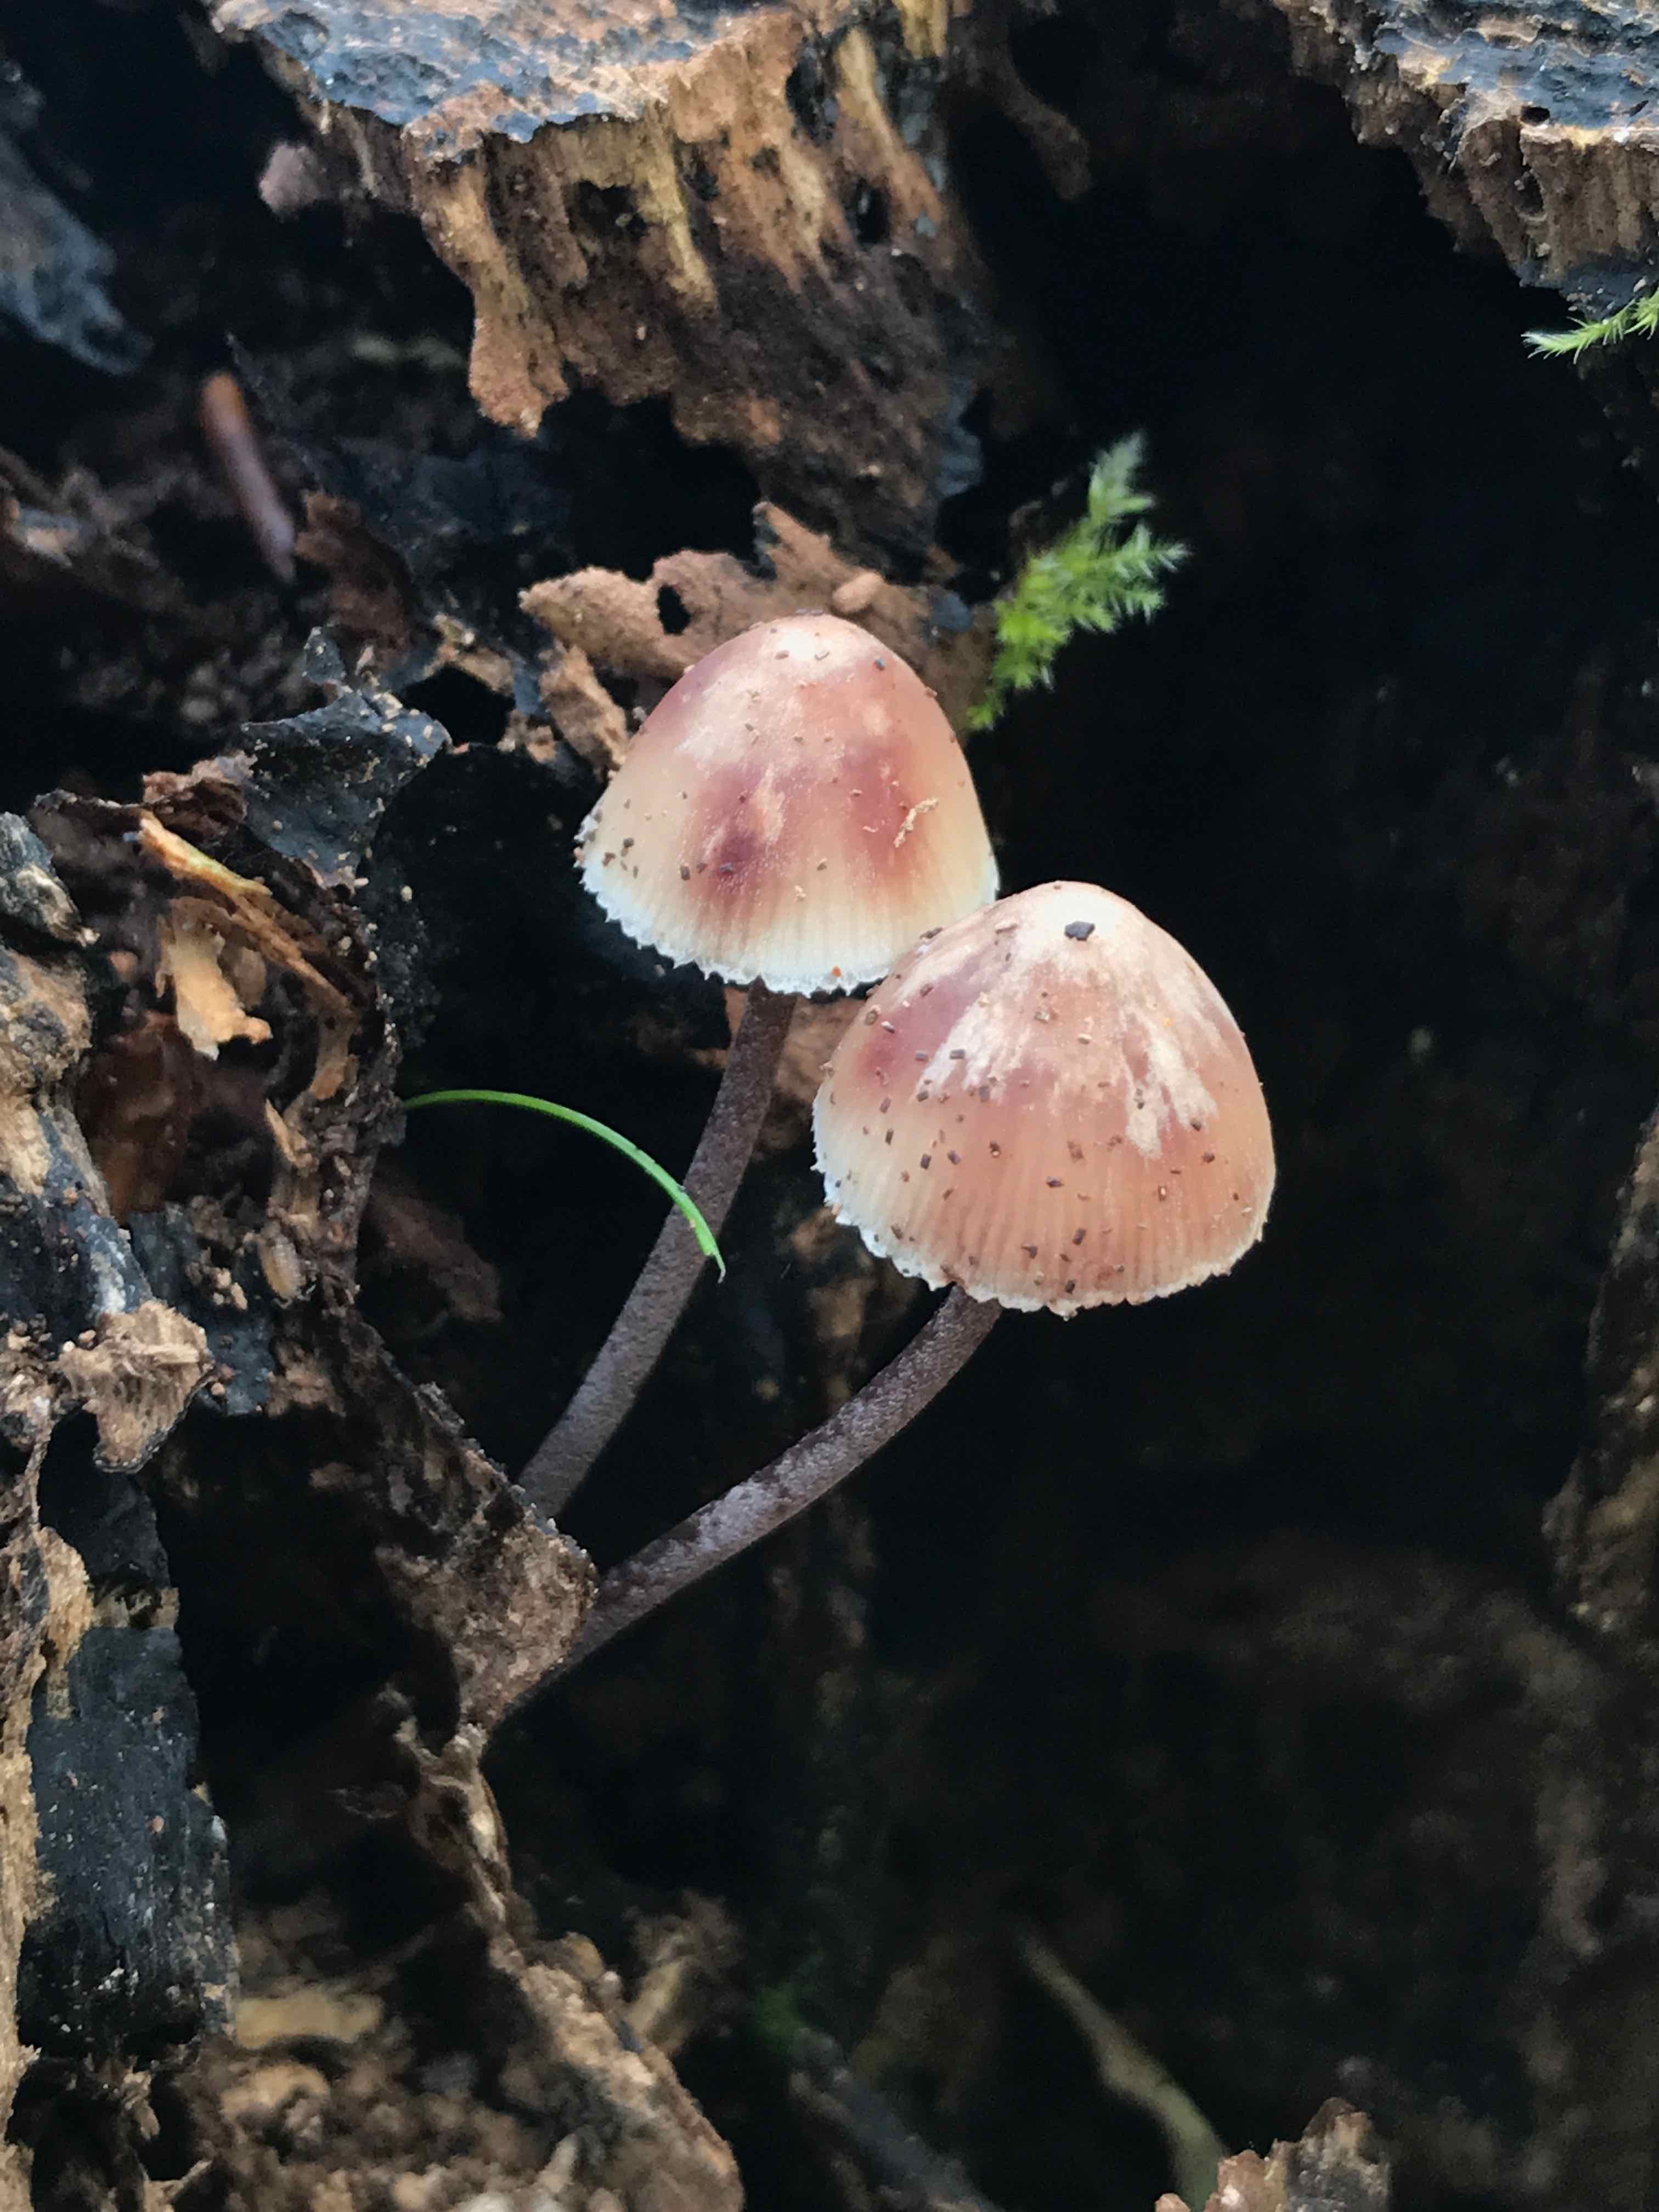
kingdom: Fungi
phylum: Basidiomycota
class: Agaricomycetes
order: Agaricales
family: Mycenaceae
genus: Mycena
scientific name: Mycena haematopus
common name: blødende huesvamp
